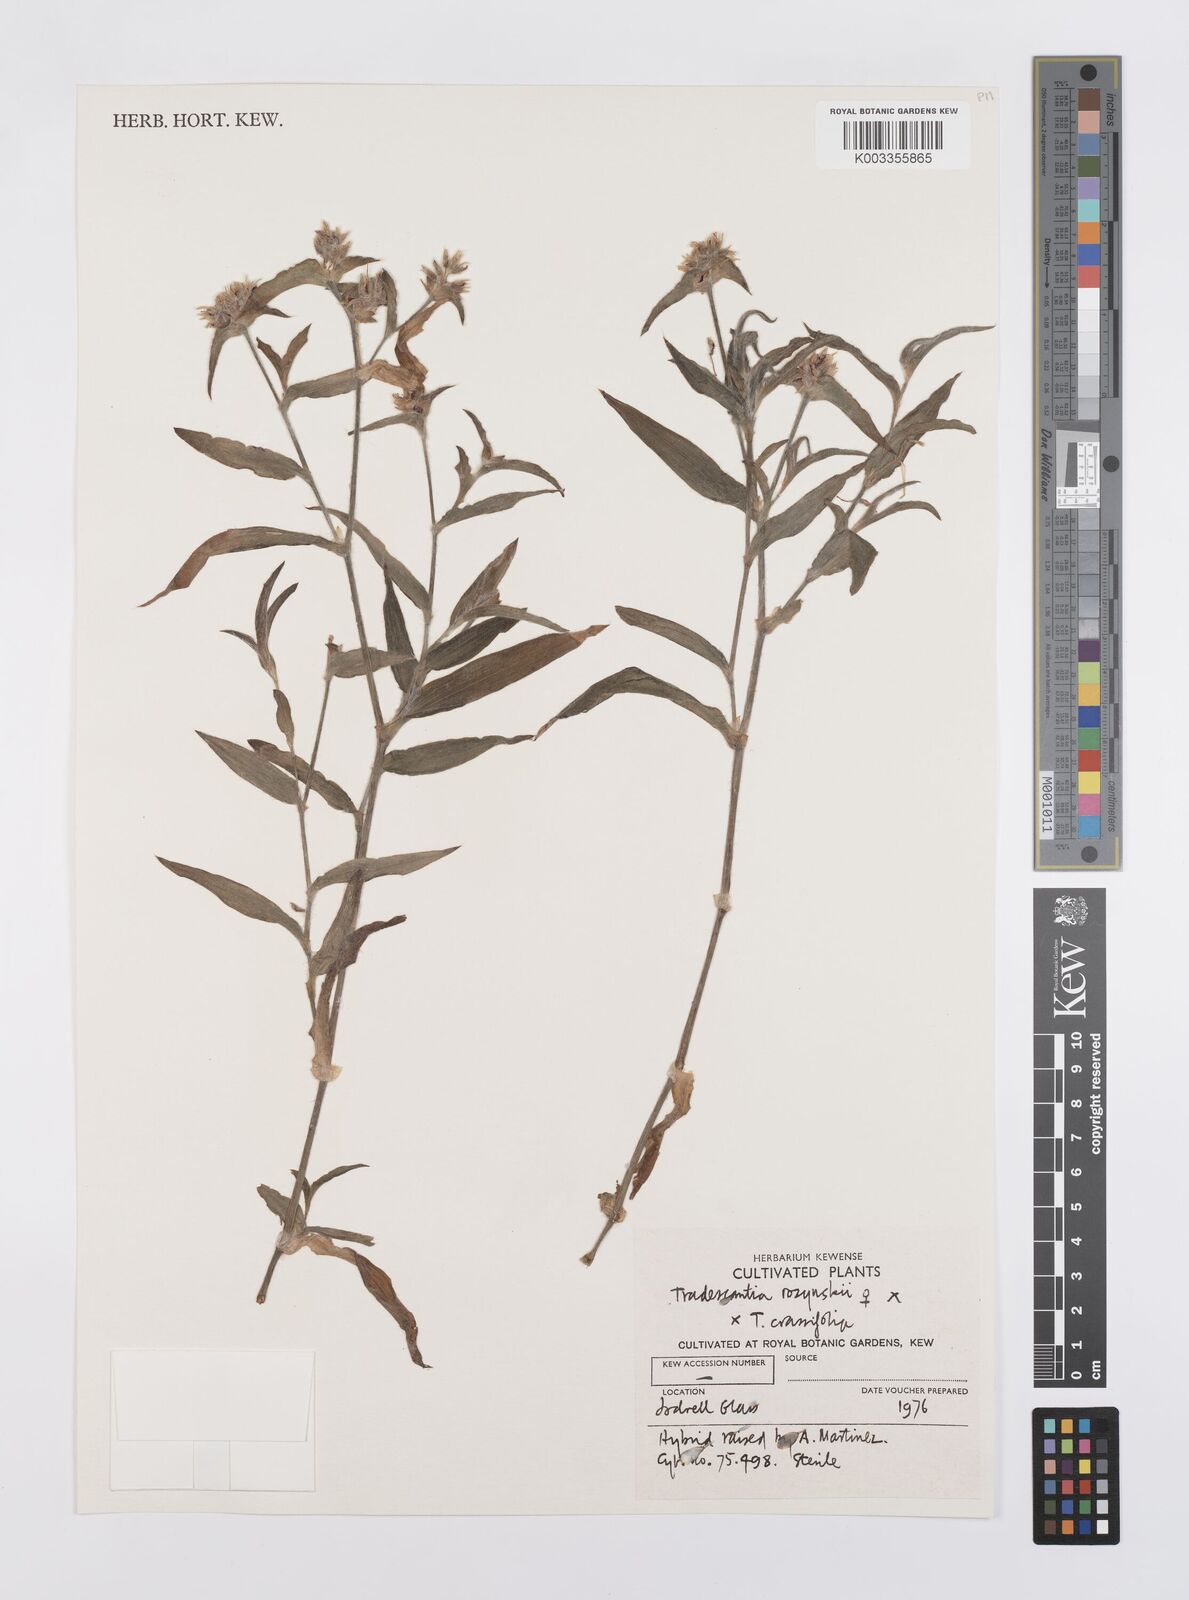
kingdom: Plantae
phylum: Tracheophyta
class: Liliopsida
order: Commelinales
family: Commelinaceae
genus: Tradescantia
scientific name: Tradescantia rozynskii
